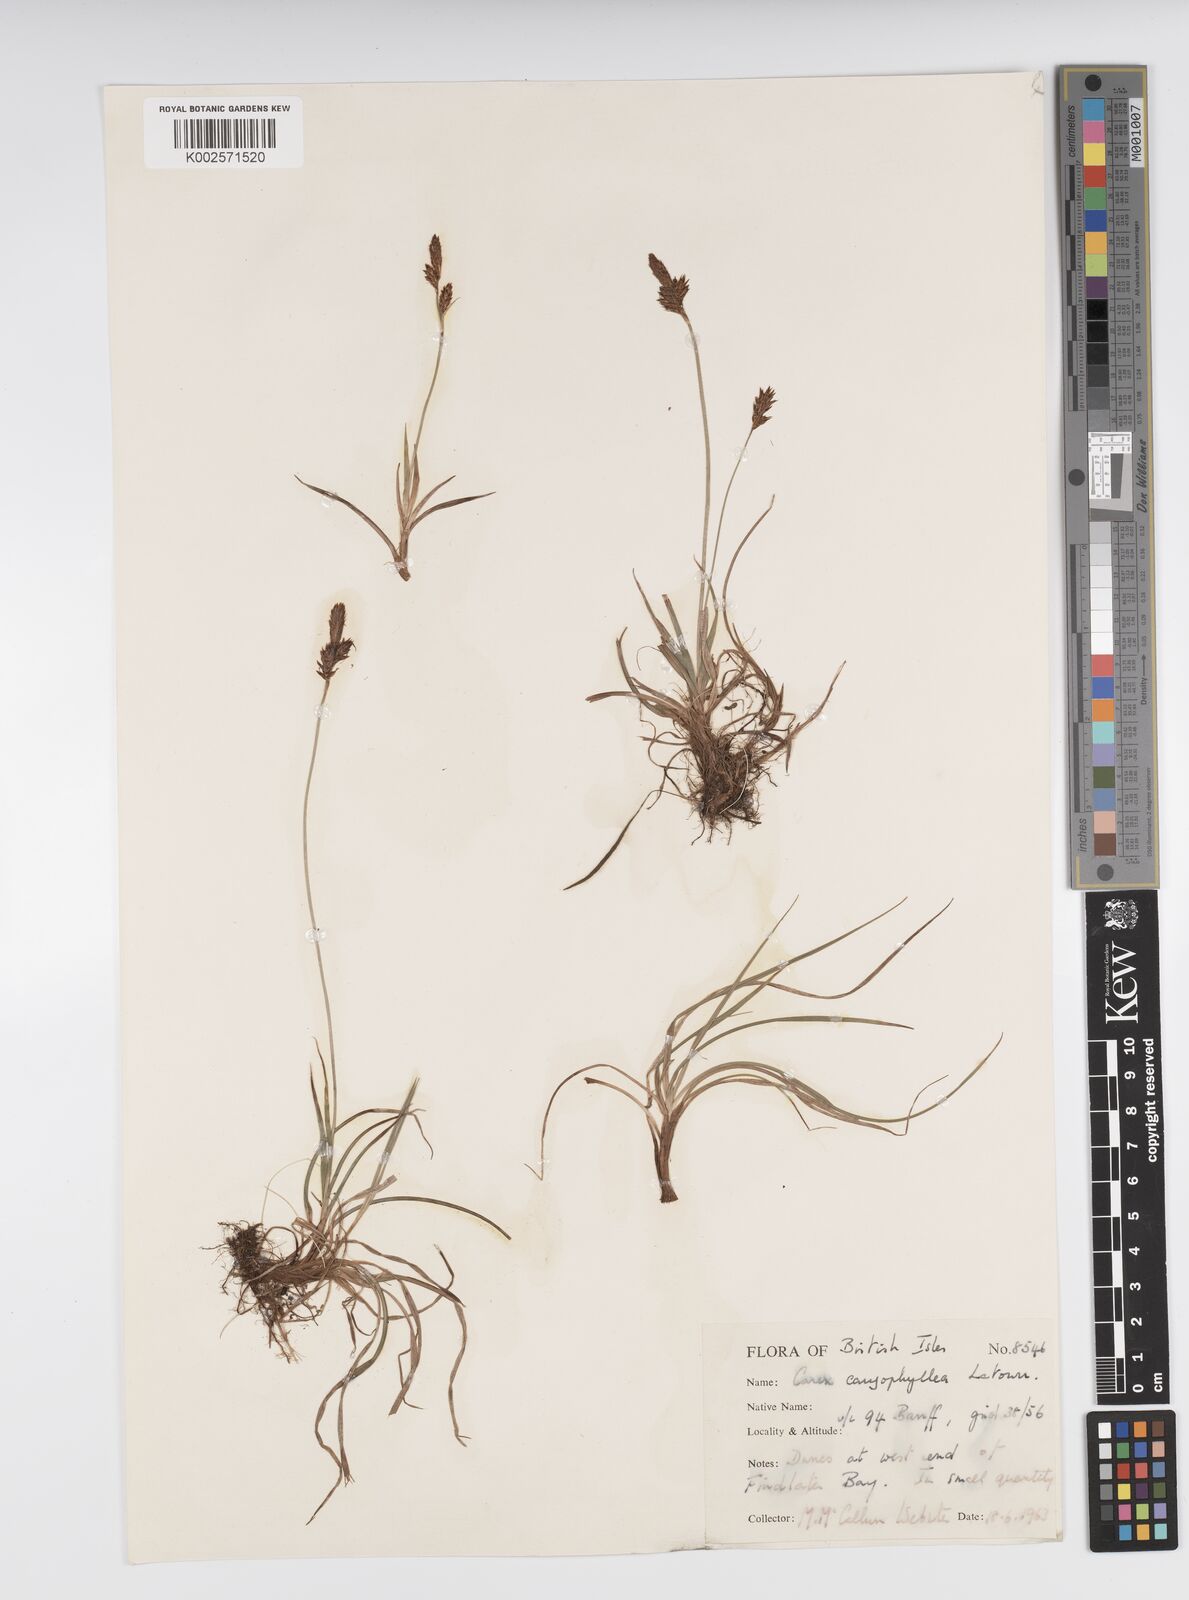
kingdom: Plantae
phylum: Tracheophyta
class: Liliopsida
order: Poales
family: Cyperaceae
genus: Carex
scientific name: Carex caryophyllea
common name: Spring sedge
